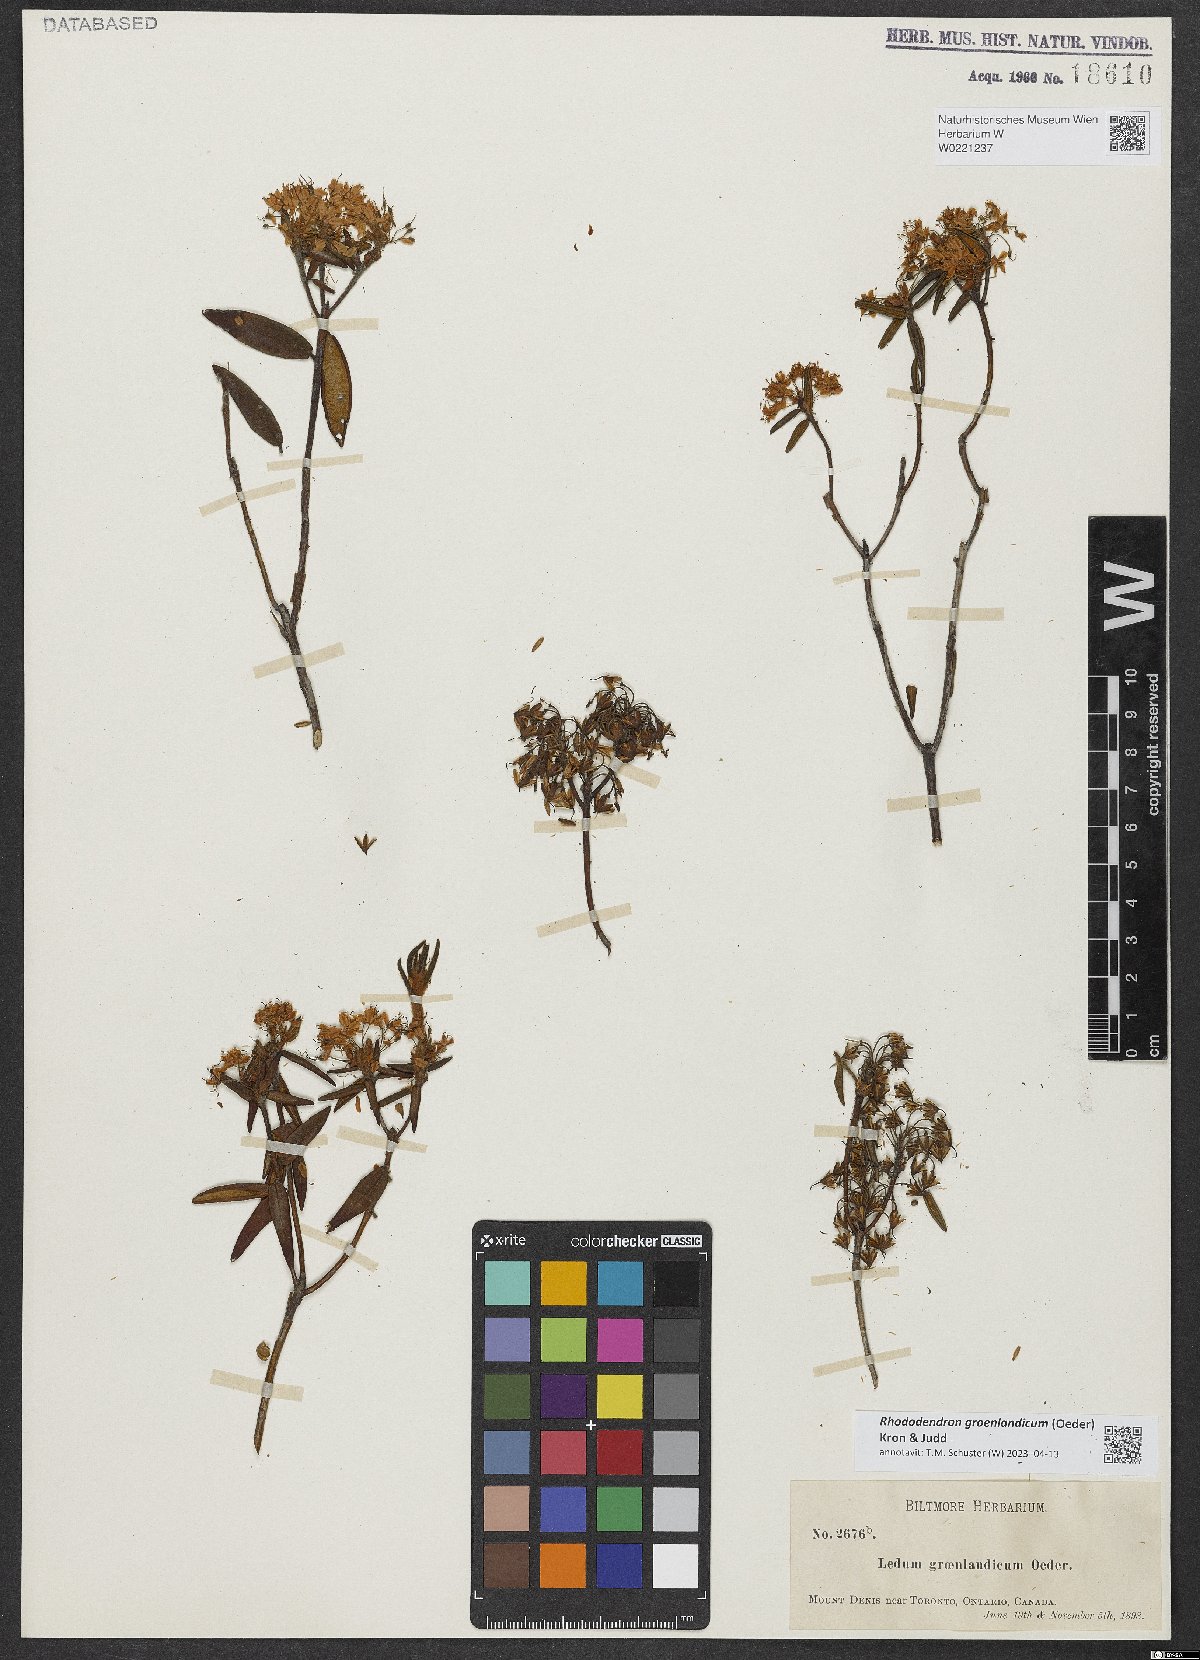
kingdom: Plantae
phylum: Tracheophyta
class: Magnoliopsida
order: Ericales
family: Ericaceae
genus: Rhododendron
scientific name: Rhododendron groenlandicum
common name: Bog labrador tea
